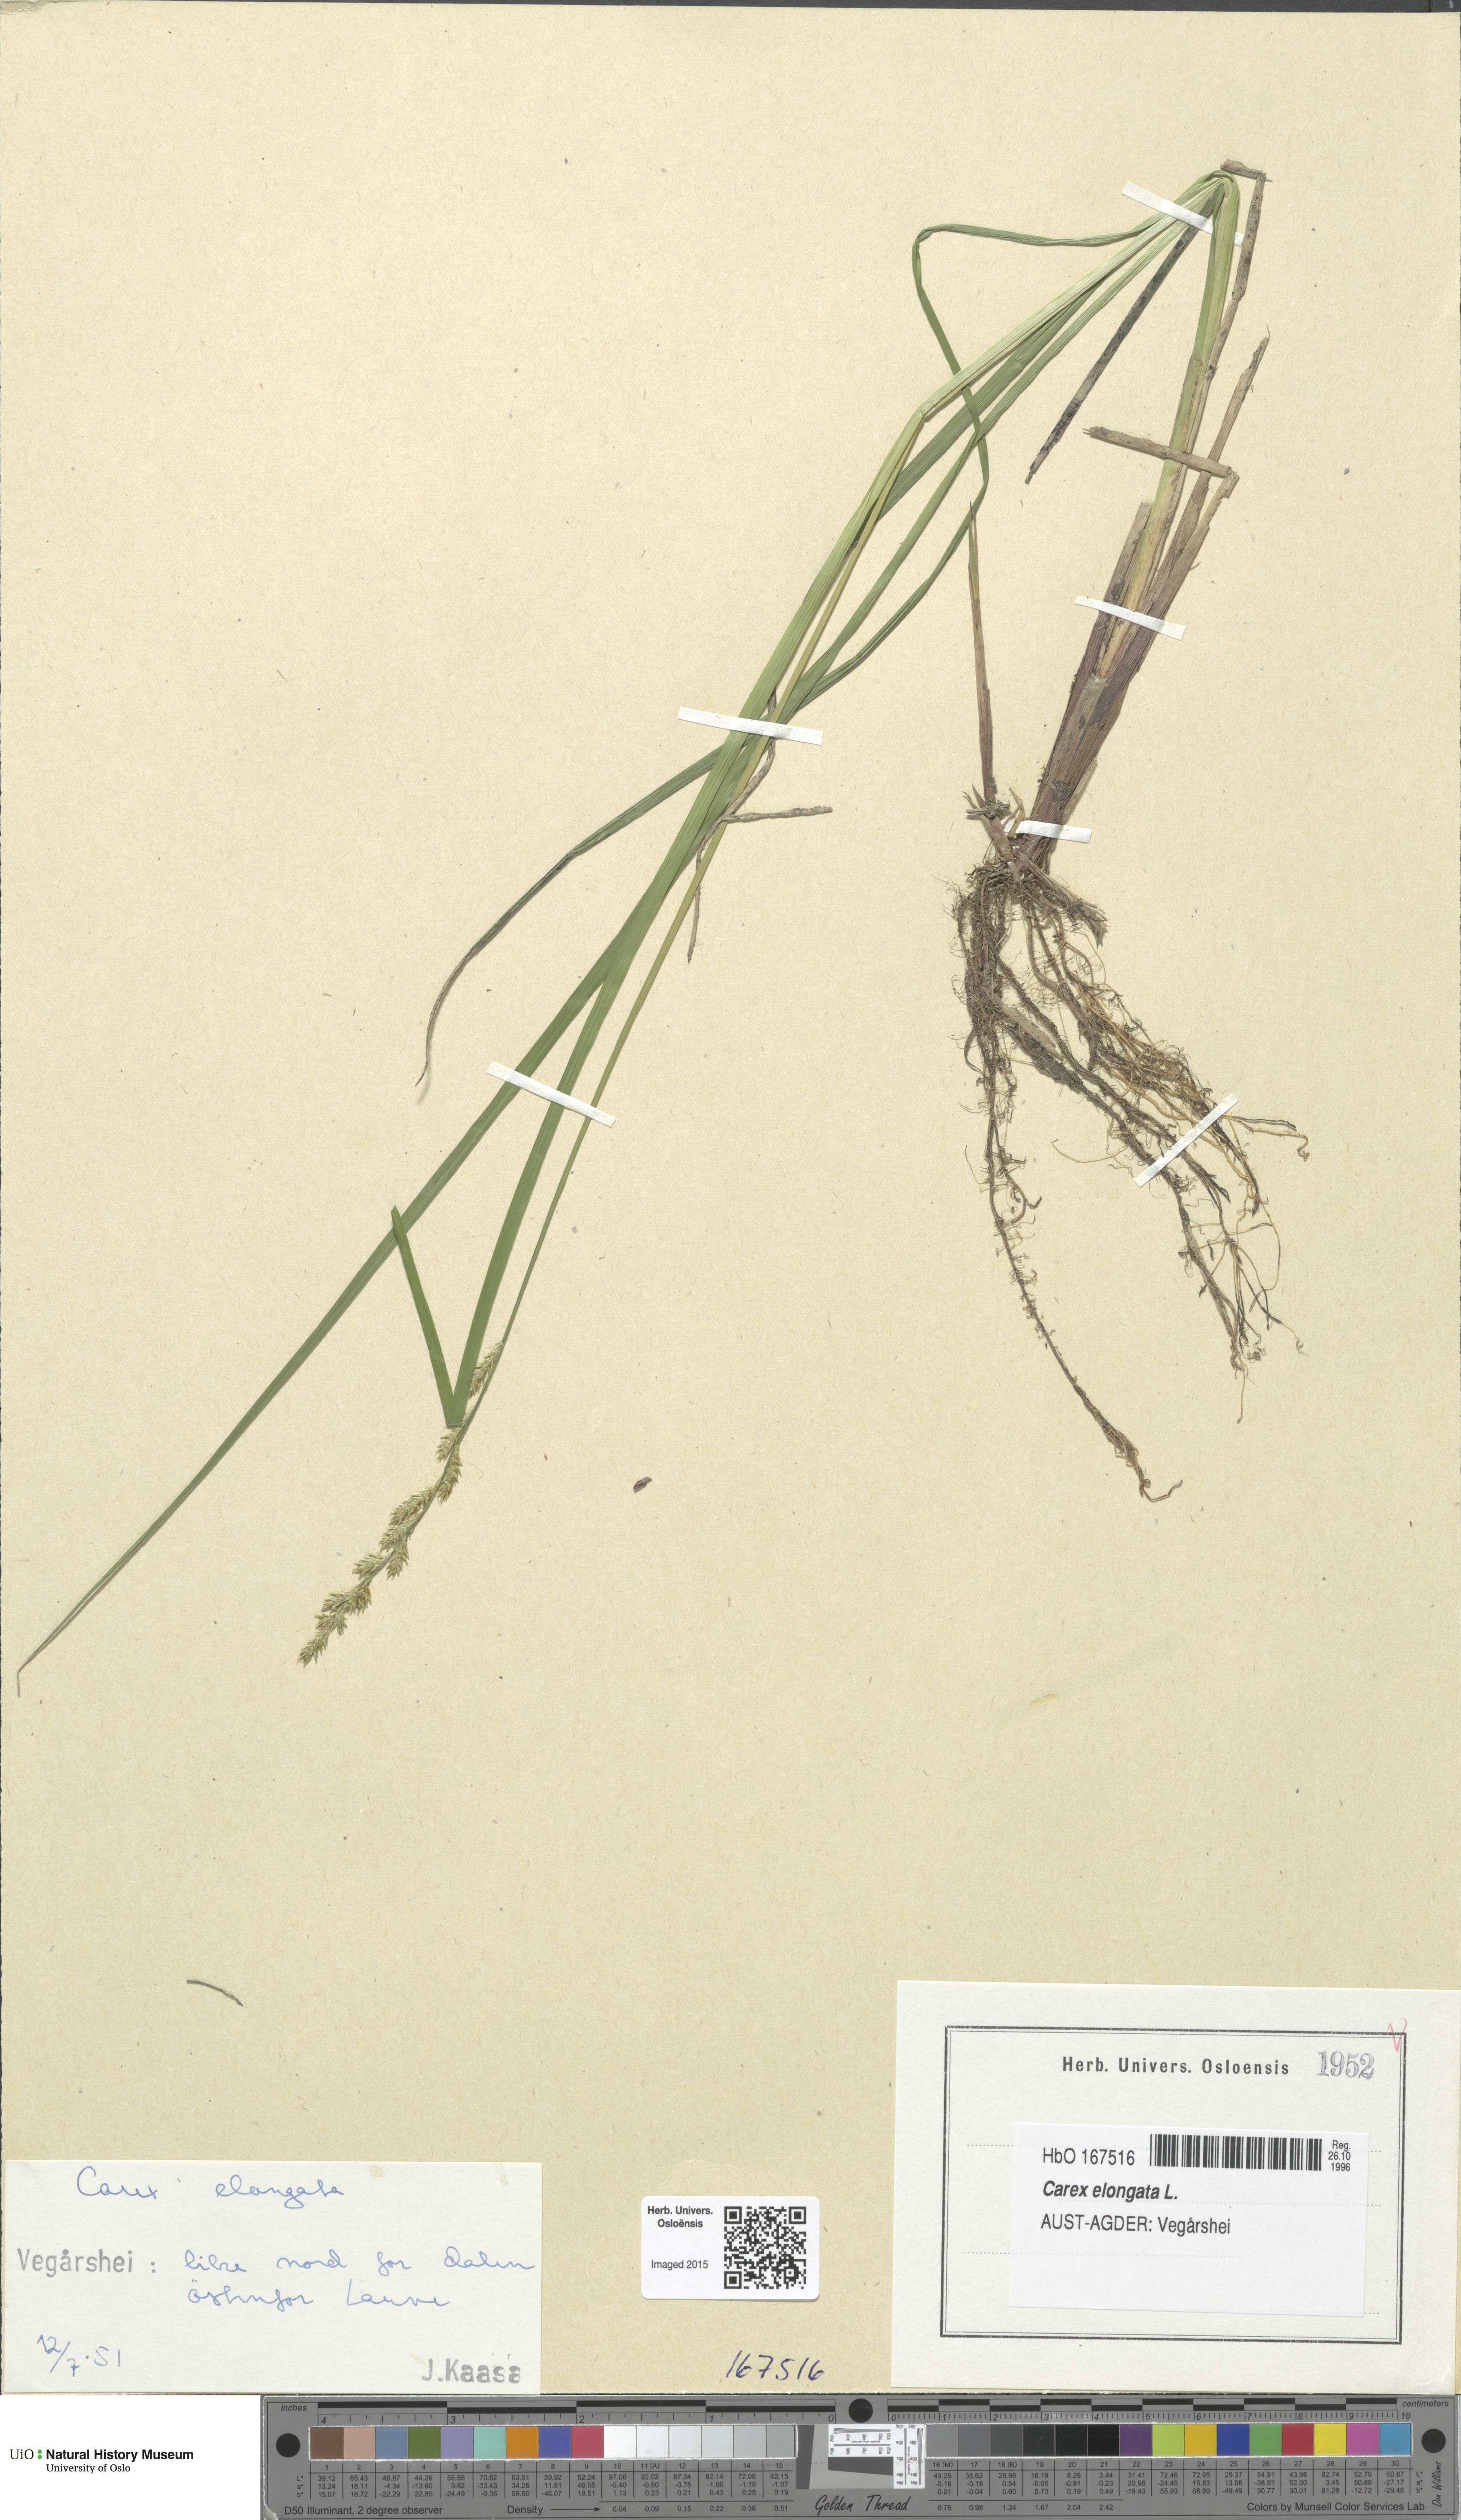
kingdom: Plantae
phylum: Tracheophyta
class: Liliopsida
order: Poales
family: Cyperaceae
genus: Carex
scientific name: Carex elongata
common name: Elongated sedge
